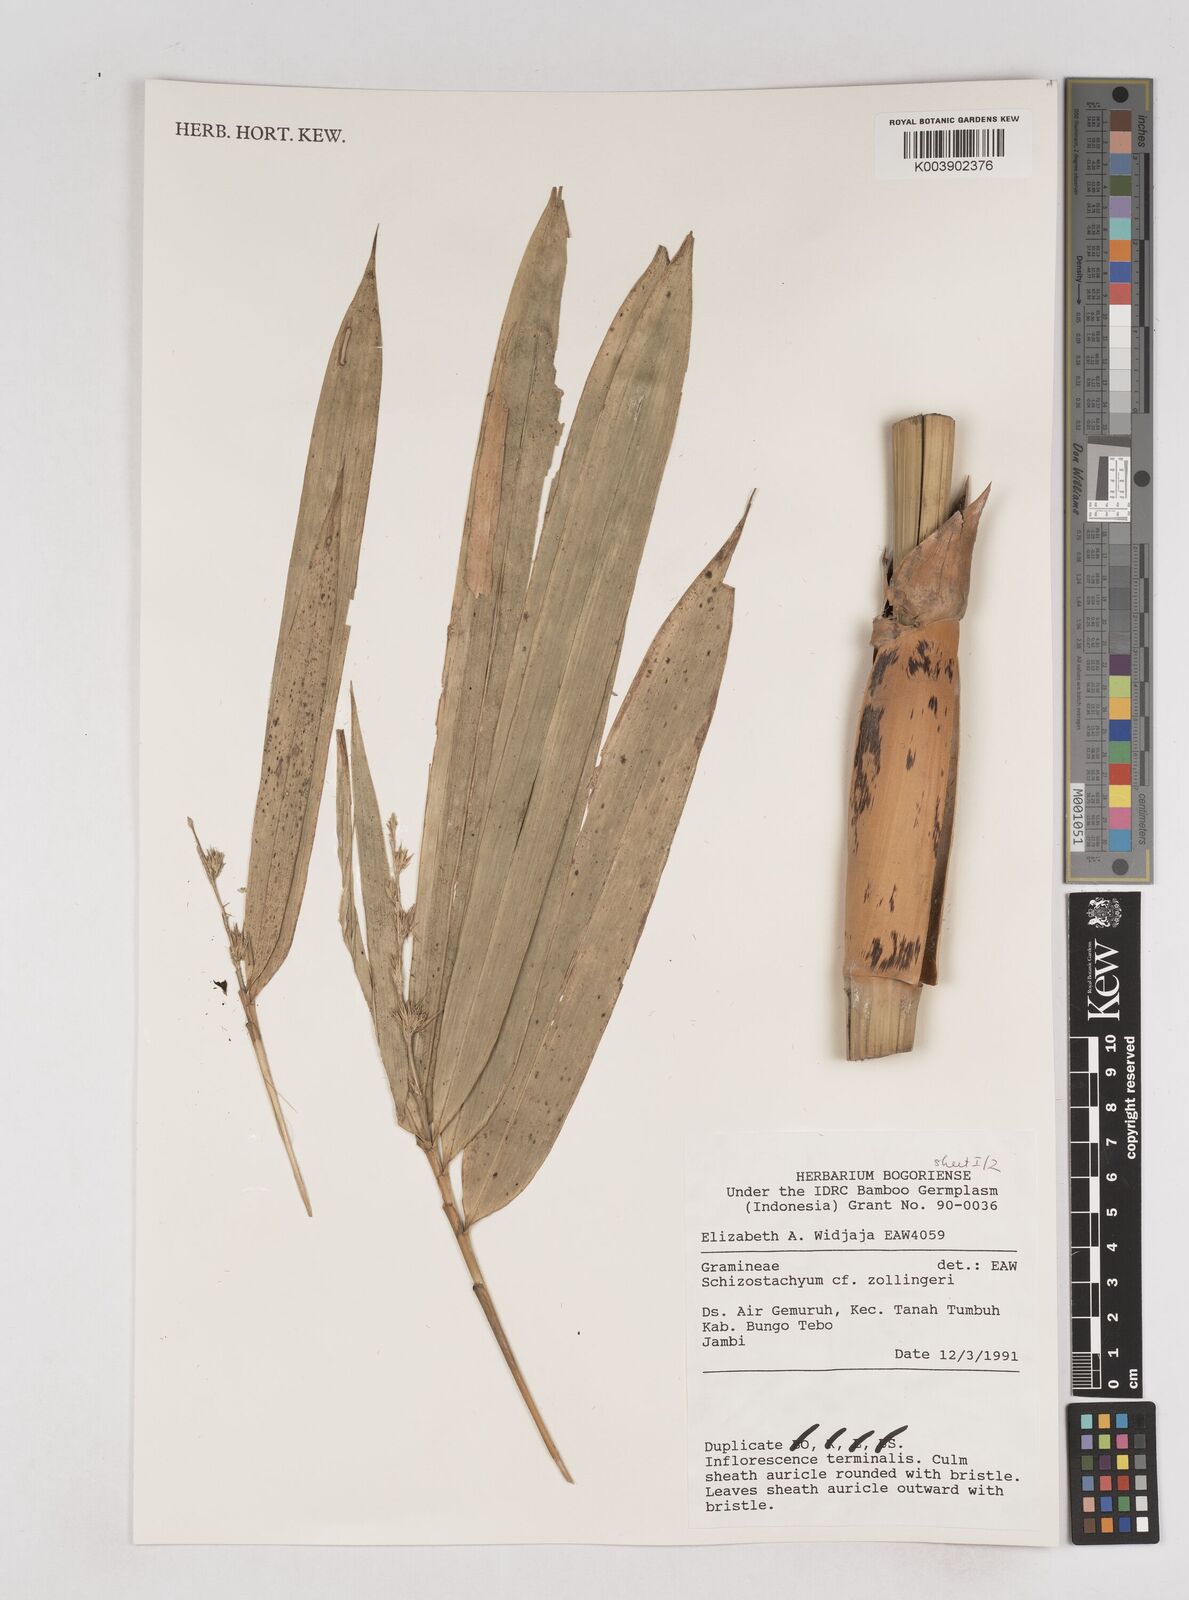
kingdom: Plantae
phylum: Tracheophyta
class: Liliopsida
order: Poales
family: Poaceae
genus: Schizostachyum
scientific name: Schizostachyum zollingeri
